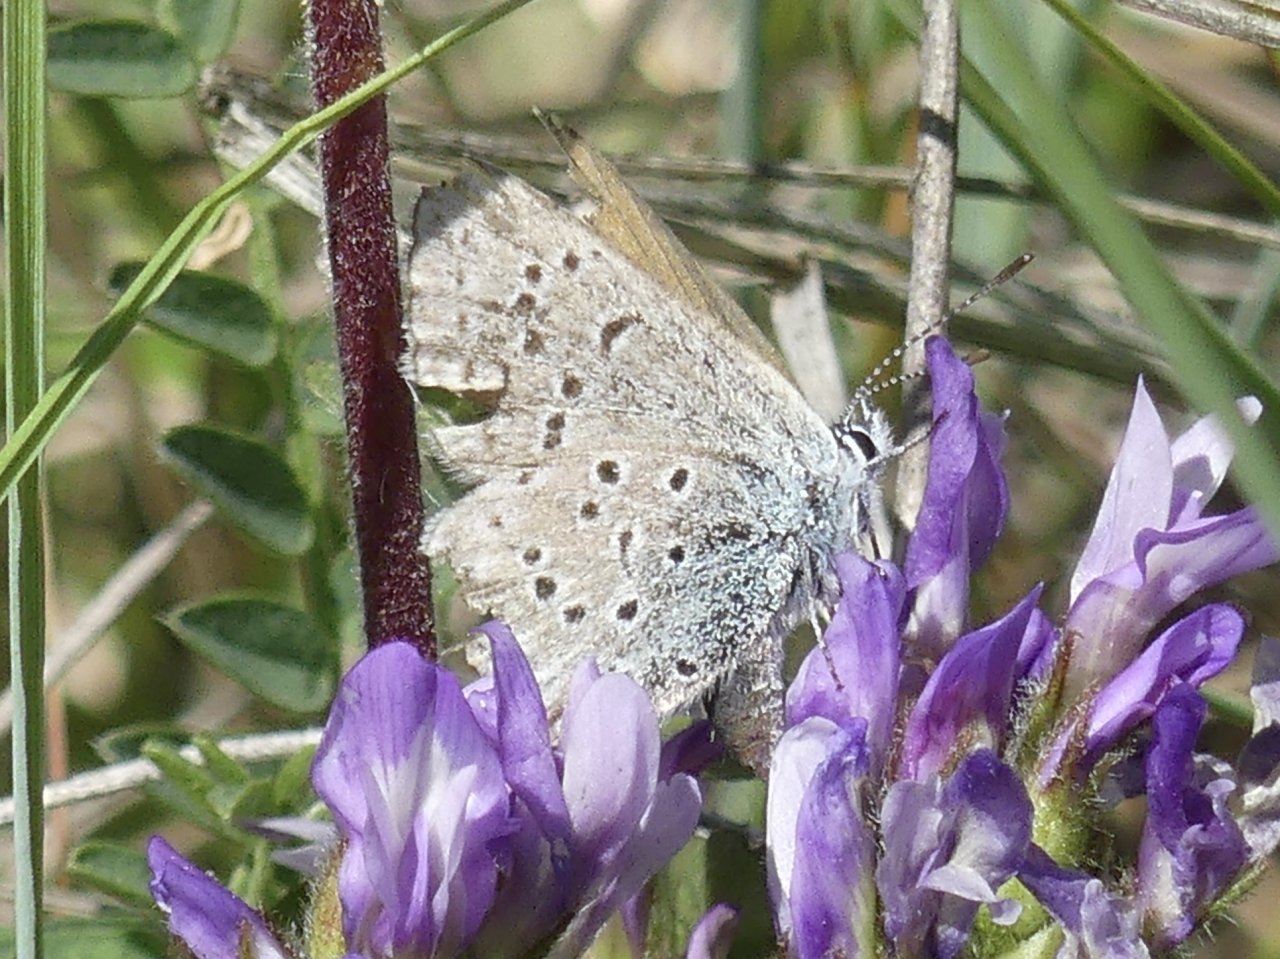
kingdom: Animalia
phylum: Arthropoda
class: Insecta
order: Lepidoptera
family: Lycaenidae
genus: Plebejus
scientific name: Plebejus saepiolus
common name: Greenish Blue
